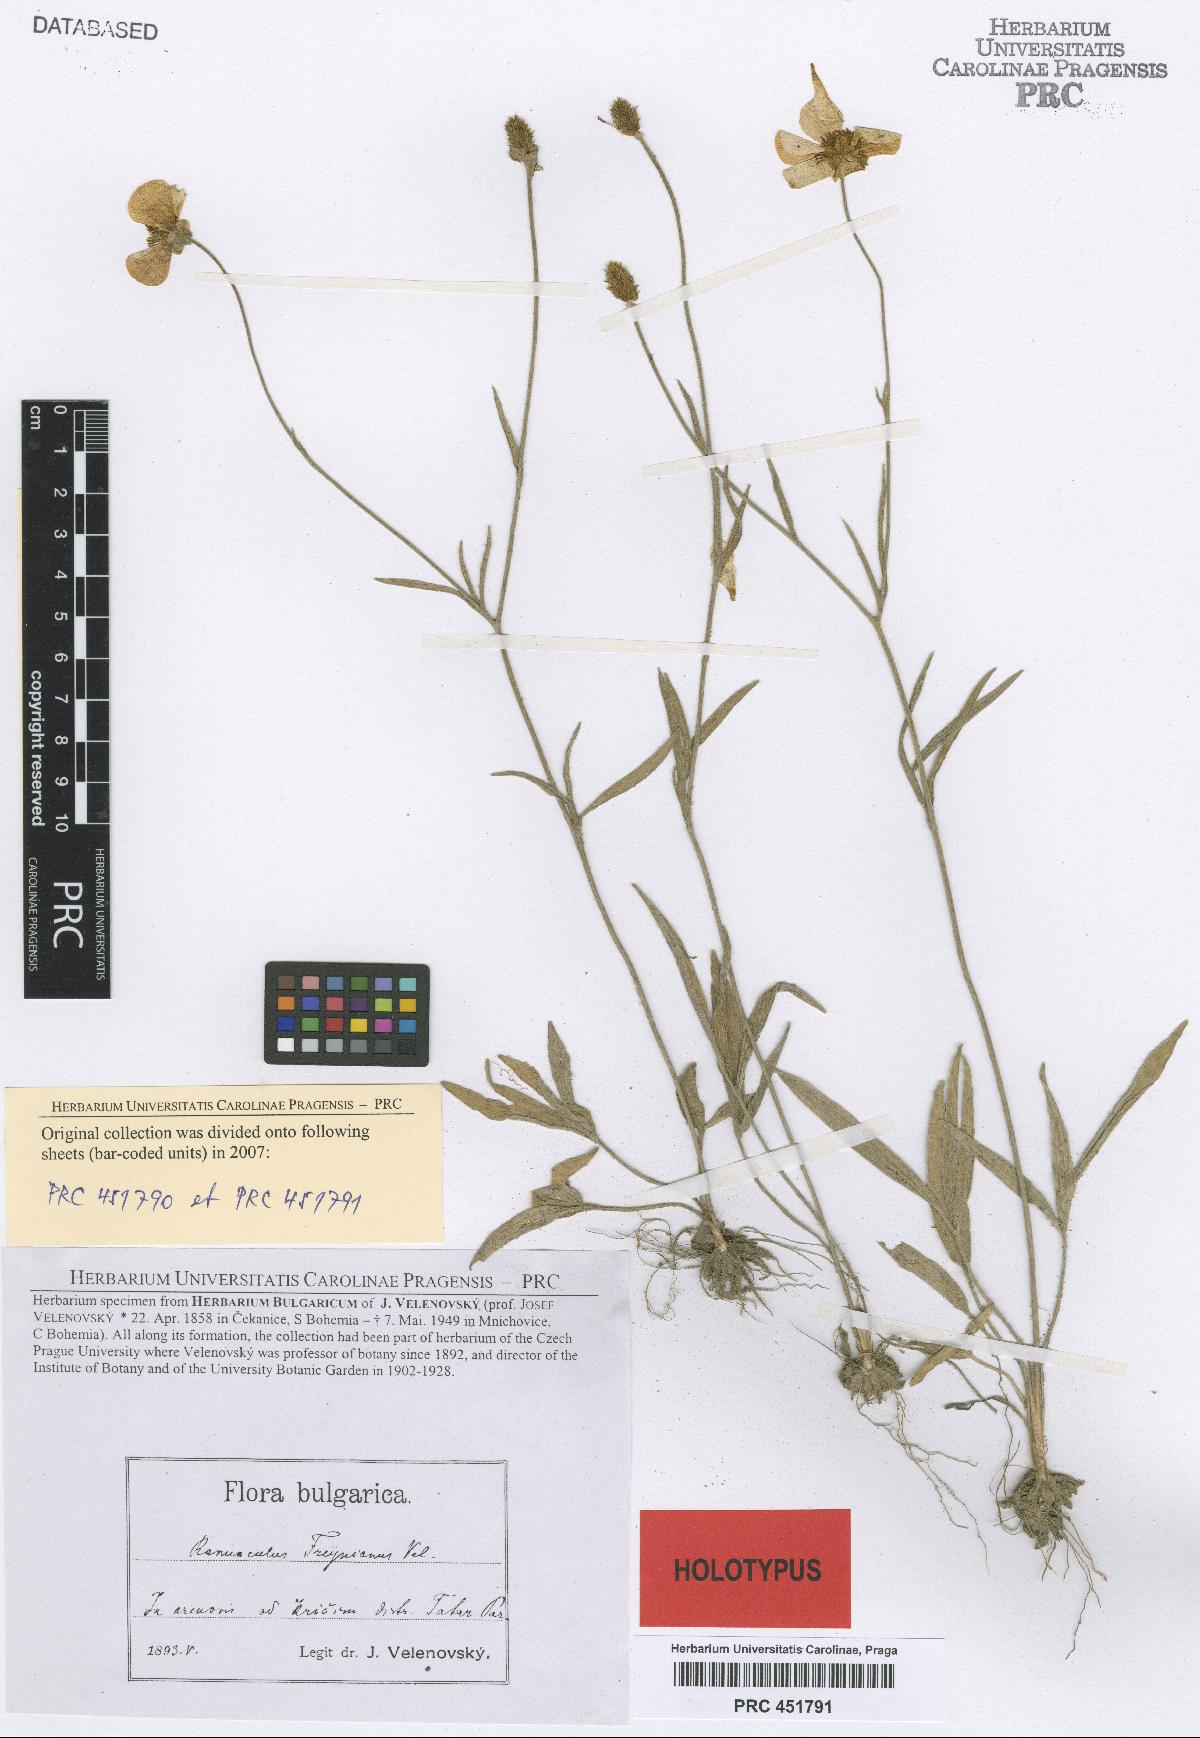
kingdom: Plantae
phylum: Tracheophyta
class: Magnoliopsida
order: Ranunculales
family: Ranunculaceae
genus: Ranunculus
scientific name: Ranunculus illyricus
